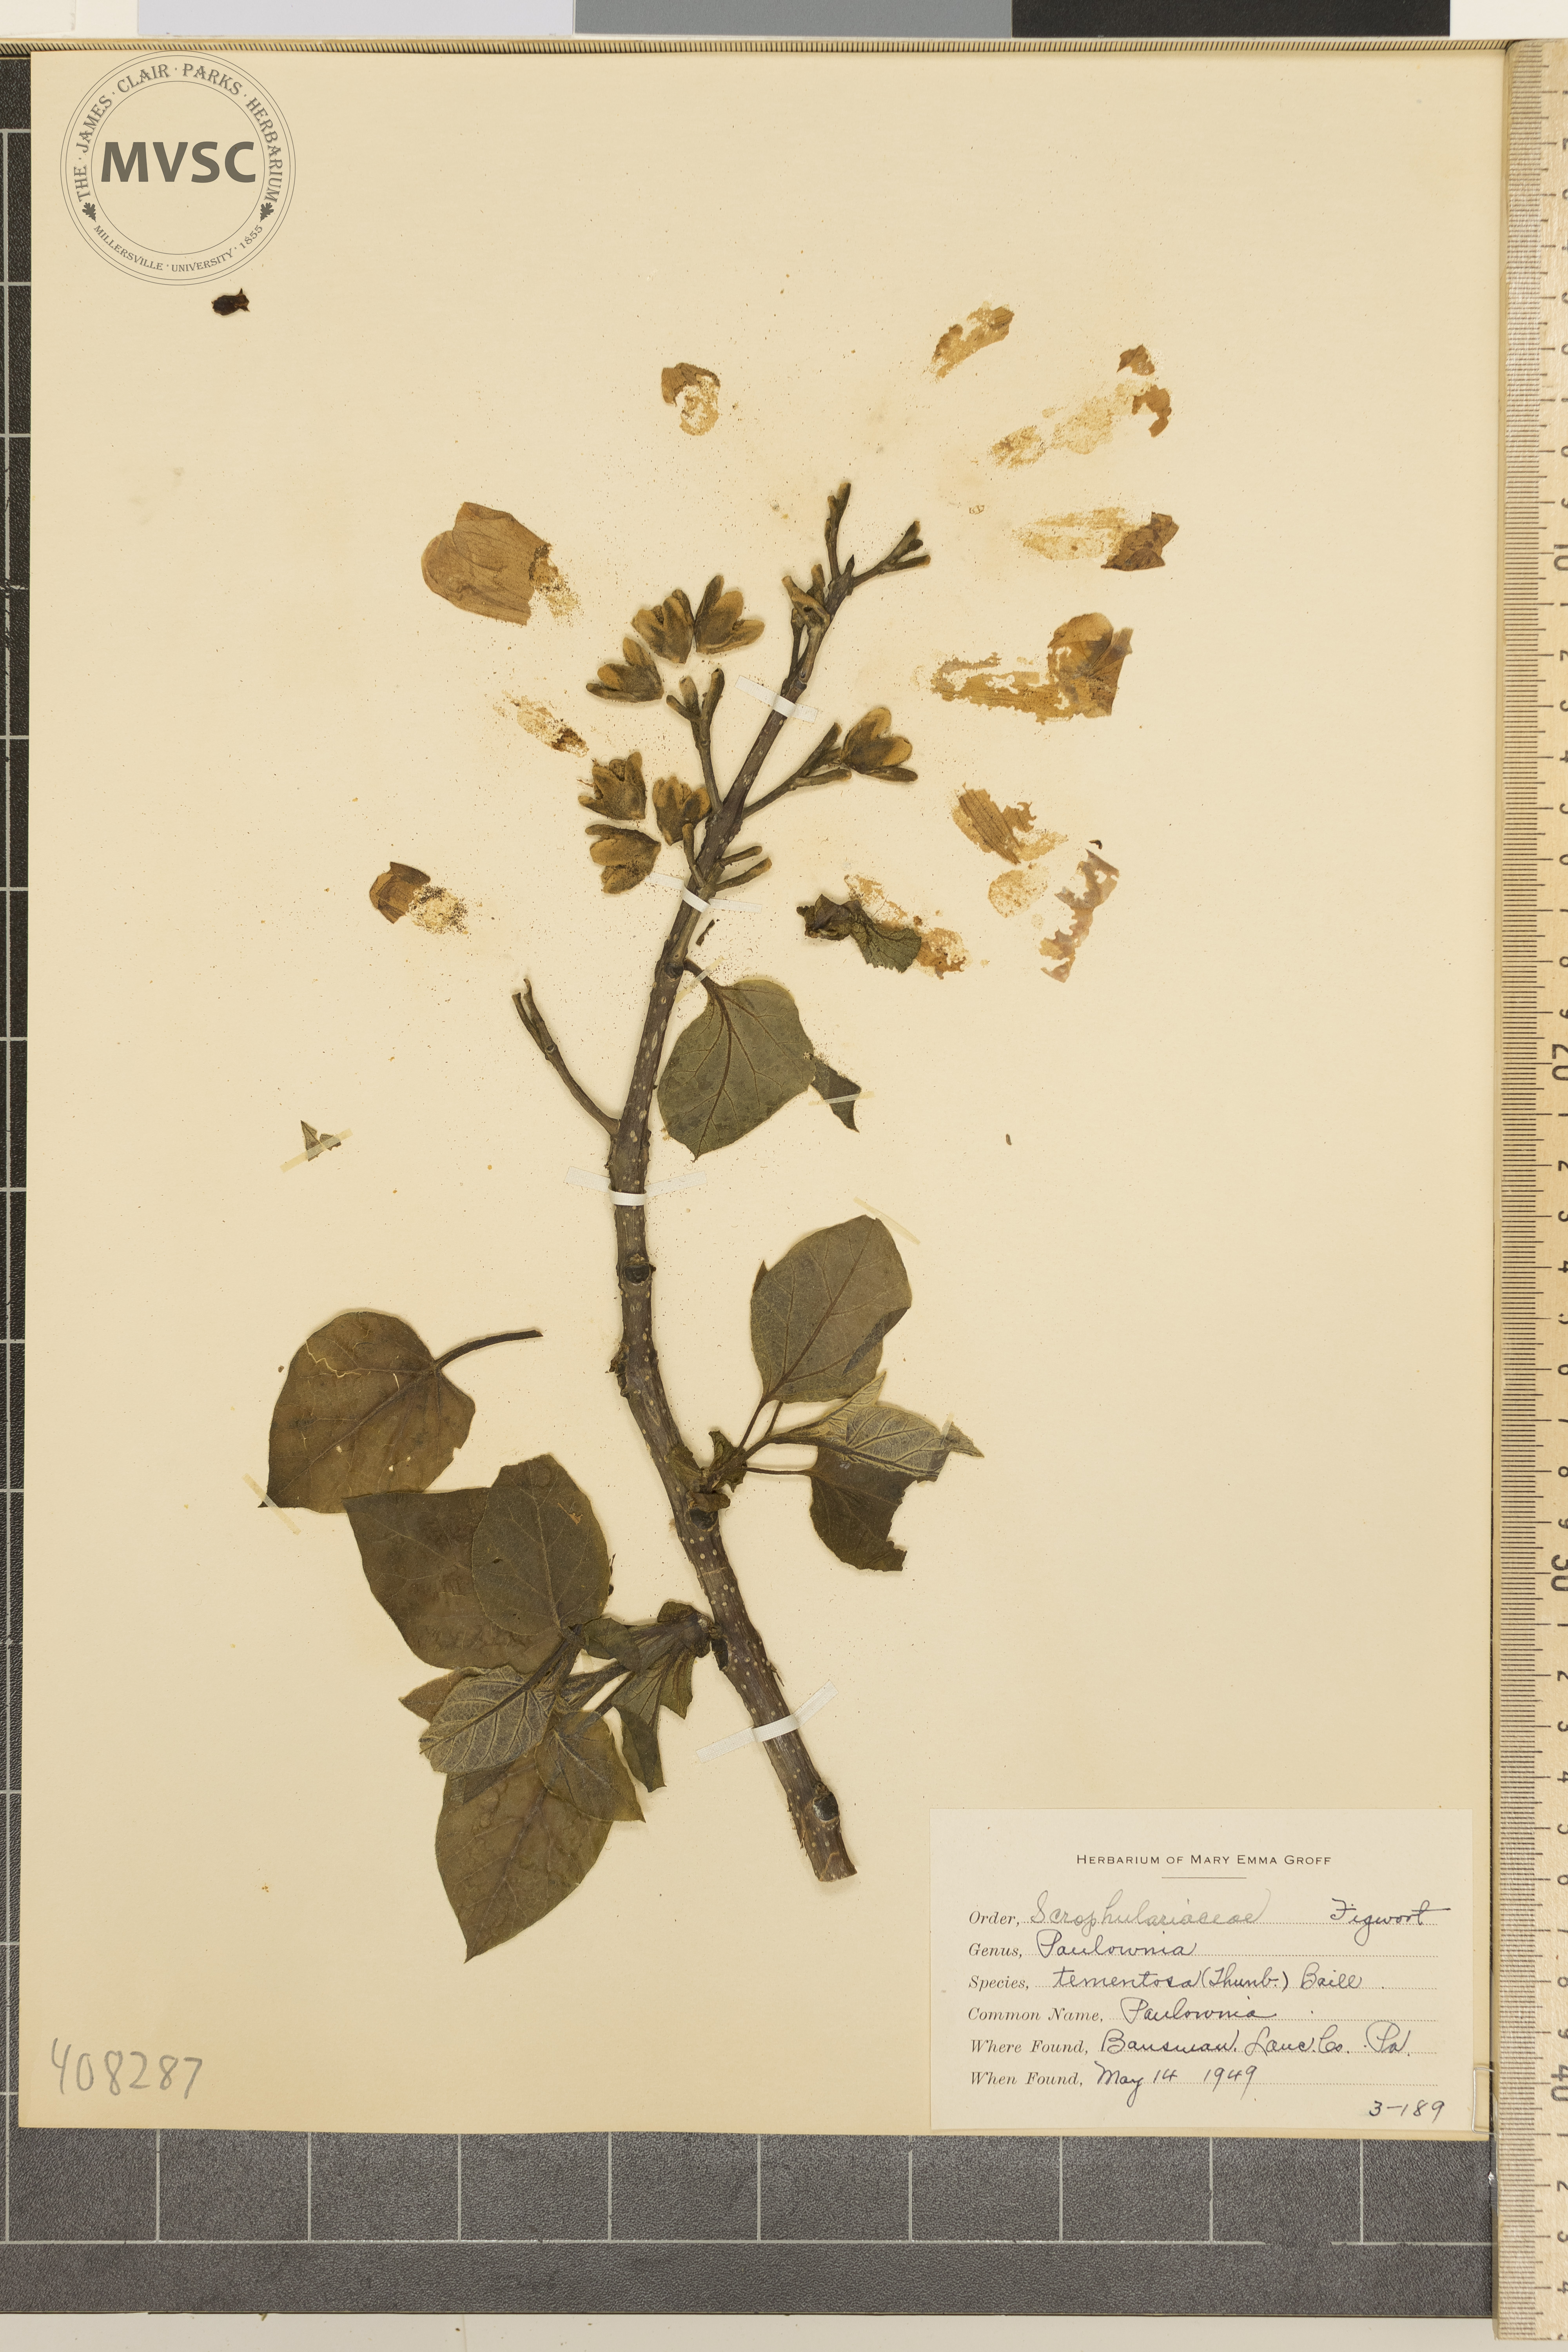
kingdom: Plantae
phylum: Tracheophyta
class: Magnoliopsida
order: Lamiales
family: Paulowniaceae
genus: Paulownia
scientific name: Paulownia tomentosa
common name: Paulownia
